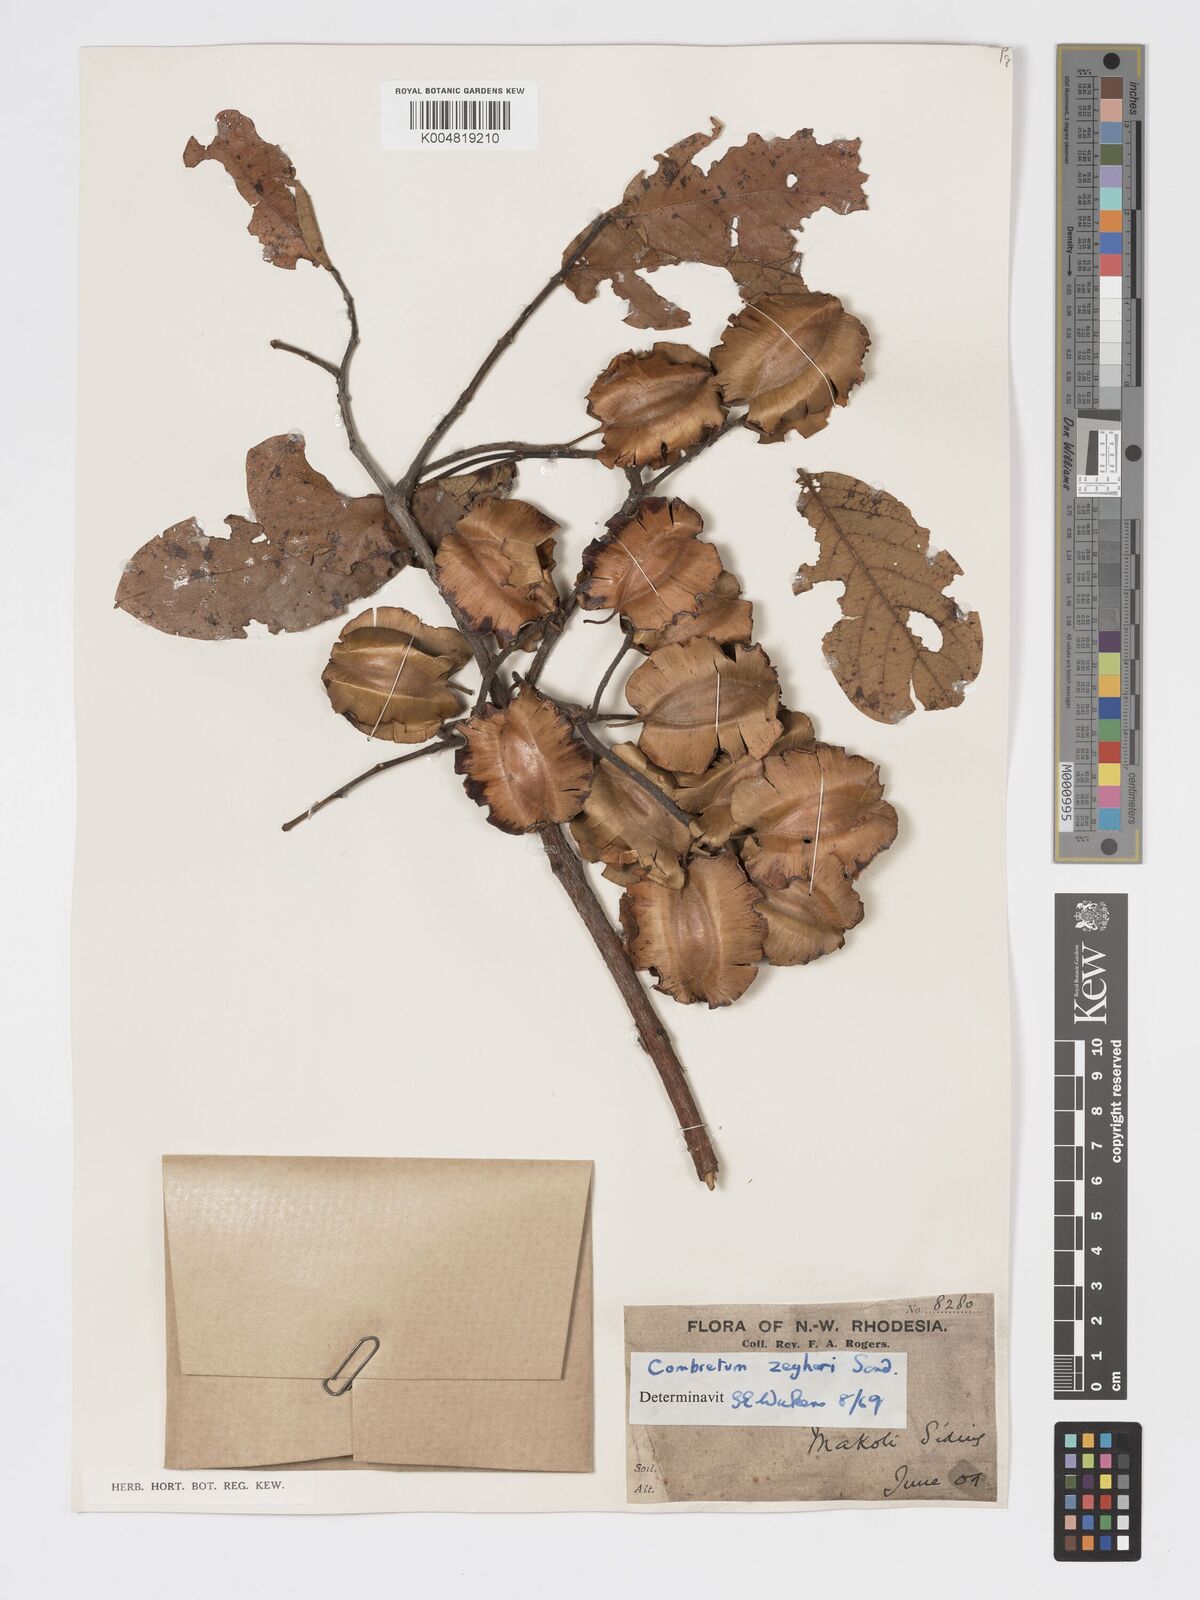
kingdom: Plantae
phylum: Tracheophyta
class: Magnoliopsida
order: Myrtales
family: Combretaceae
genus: Combretum
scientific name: Combretum zeyheri
